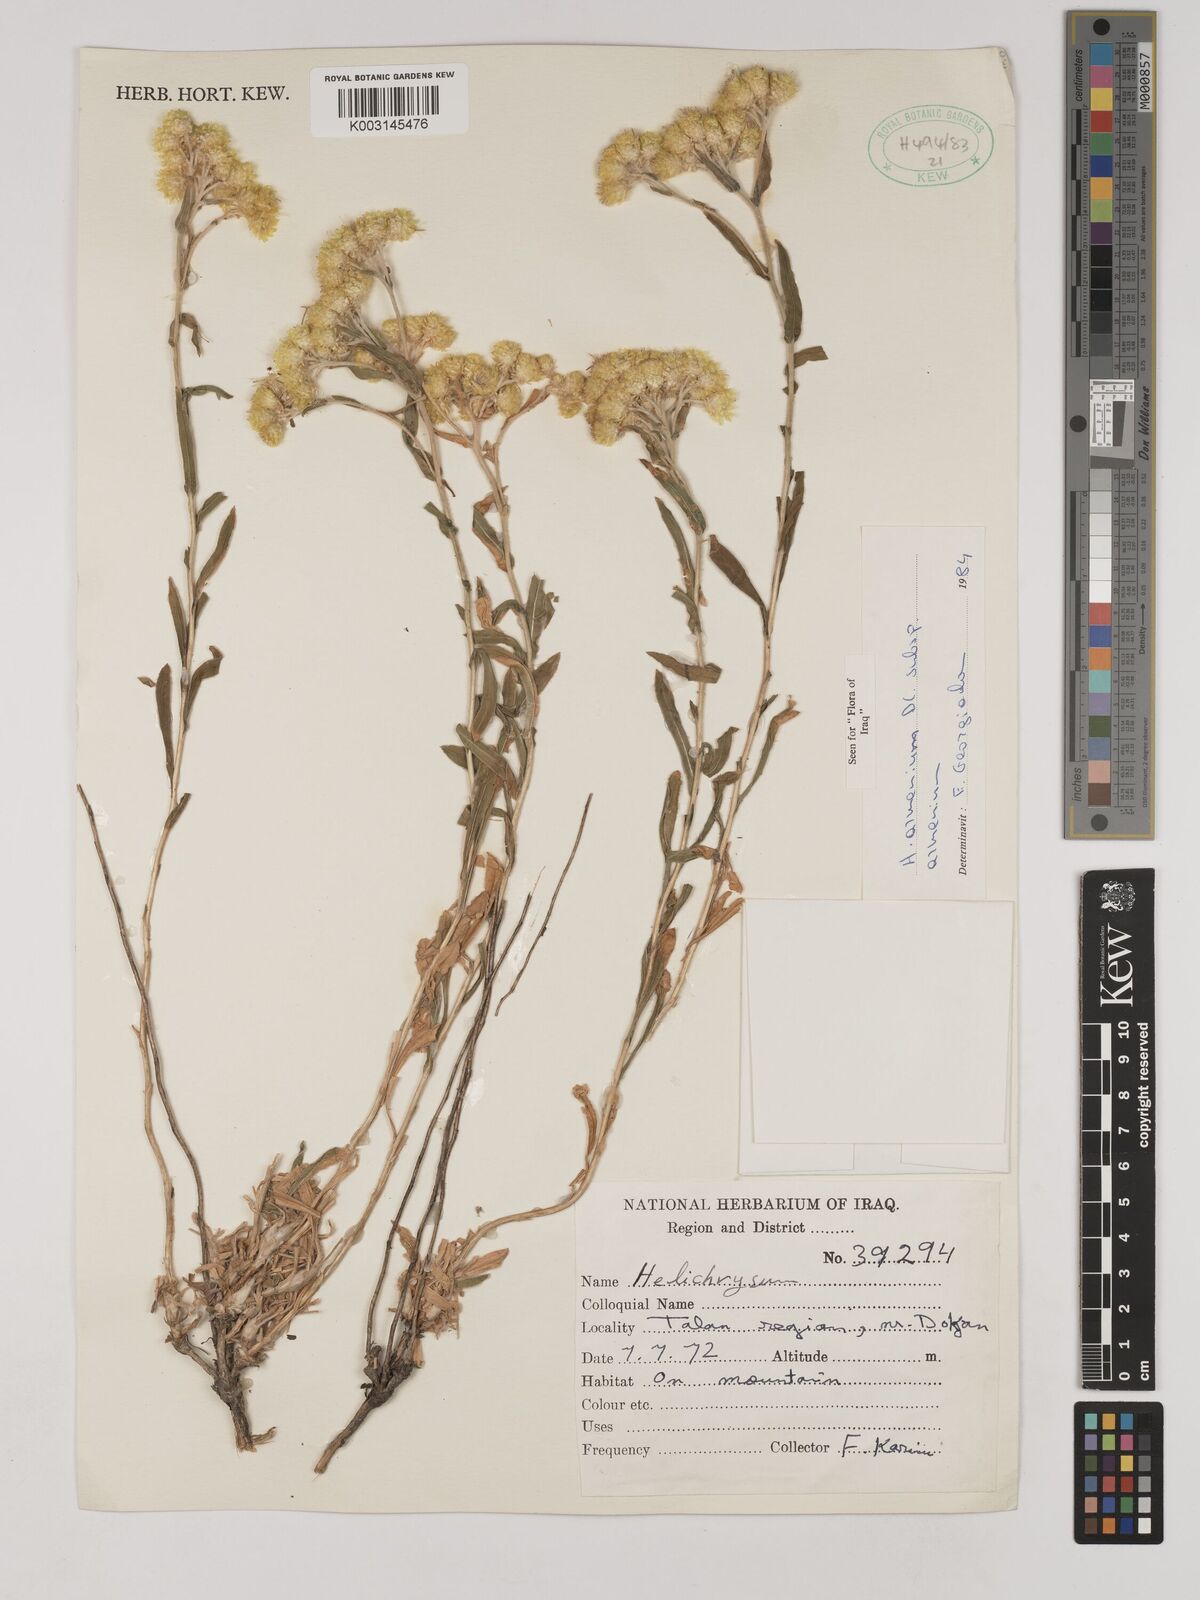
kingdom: Plantae
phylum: Tracheophyta
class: Magnoliopsida
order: Asterales
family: Asteraceae
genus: Helichrysum
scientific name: Helichrysum armenium
